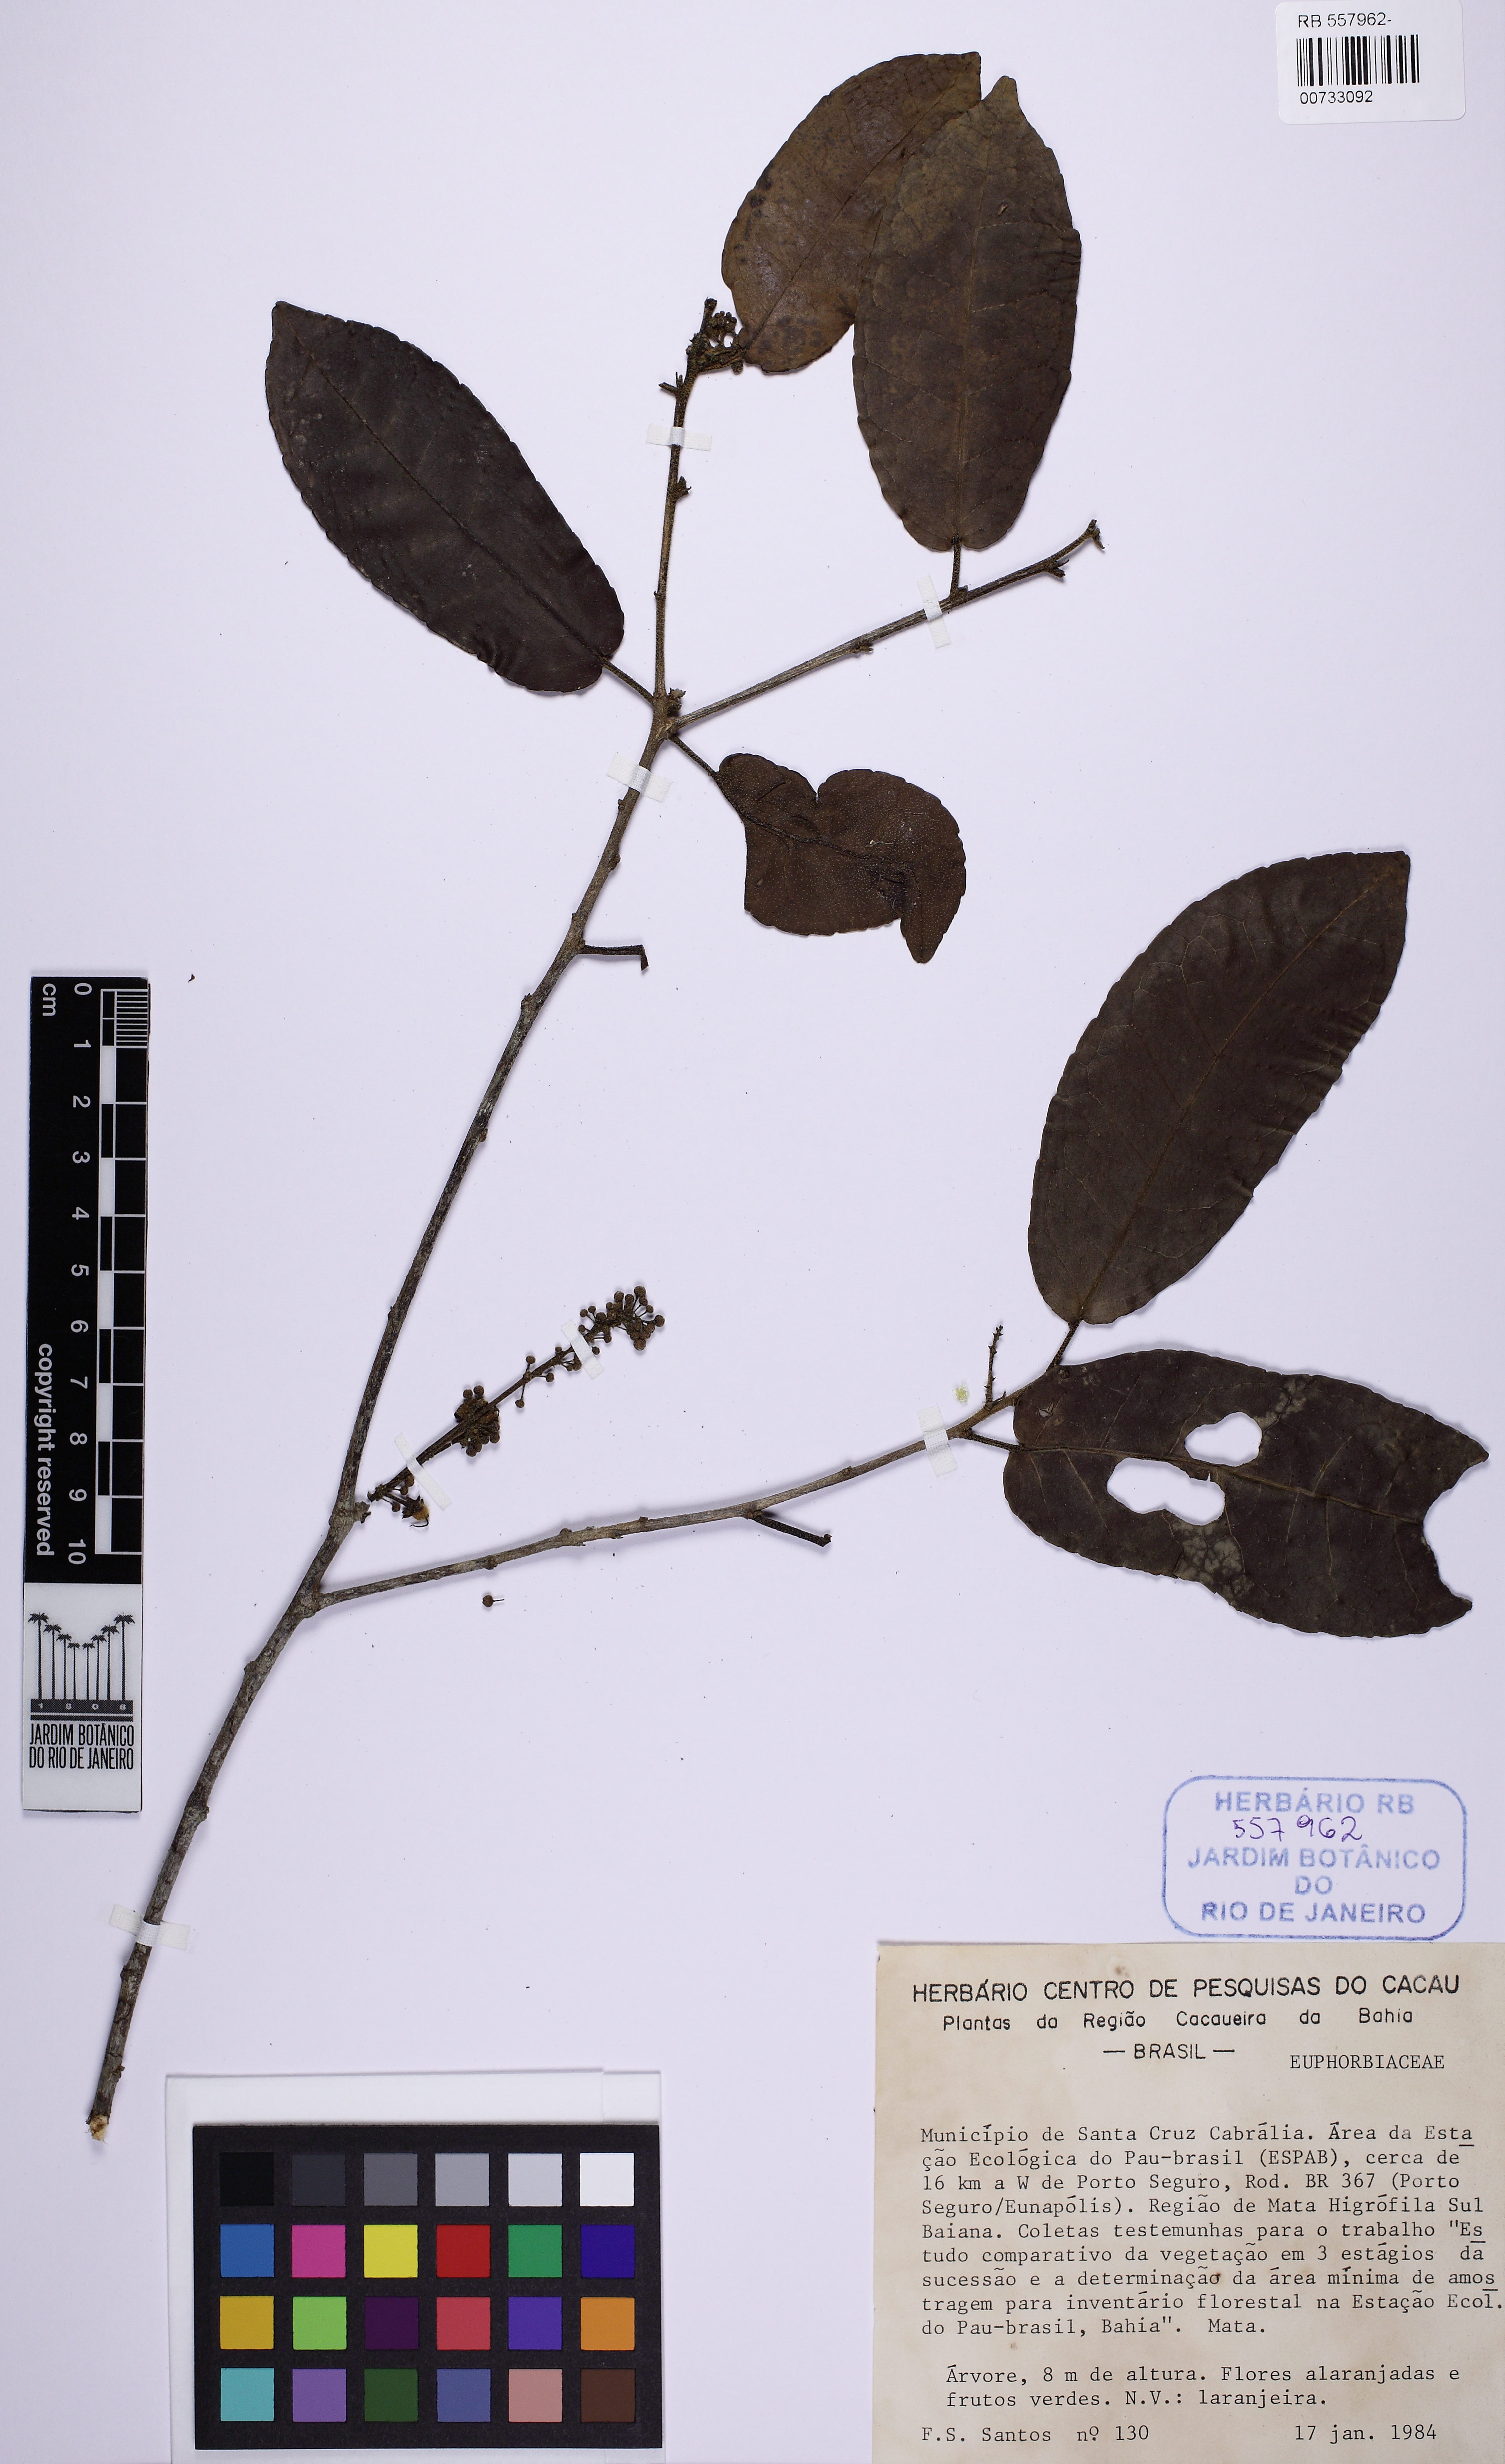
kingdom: Plantae
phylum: Tracheophyta
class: Magnoliopsida
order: Malpighiales
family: Euphorbiaceae
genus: Croton
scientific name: Croton macrobothrys
